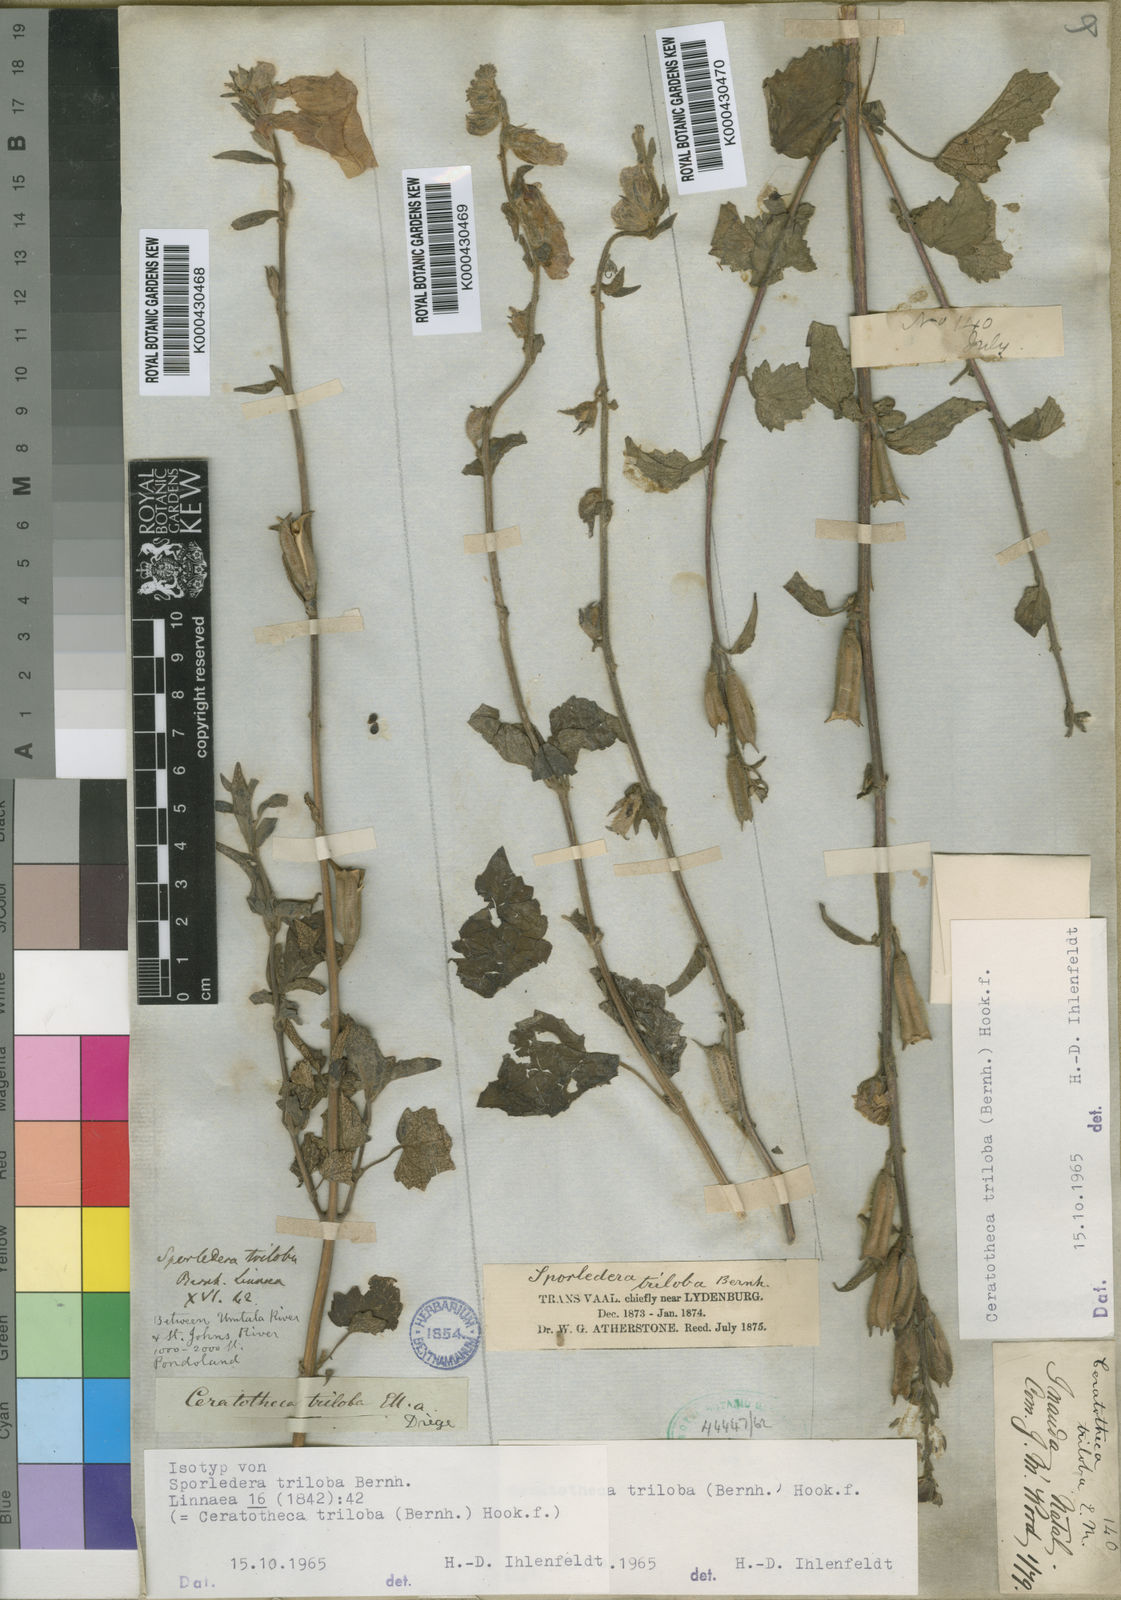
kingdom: Plantae
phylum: Tracheophyta
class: Magnoliopsida
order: Lamiales
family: Pedaliaceae
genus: Sesamum
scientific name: Sesamum trilobum
